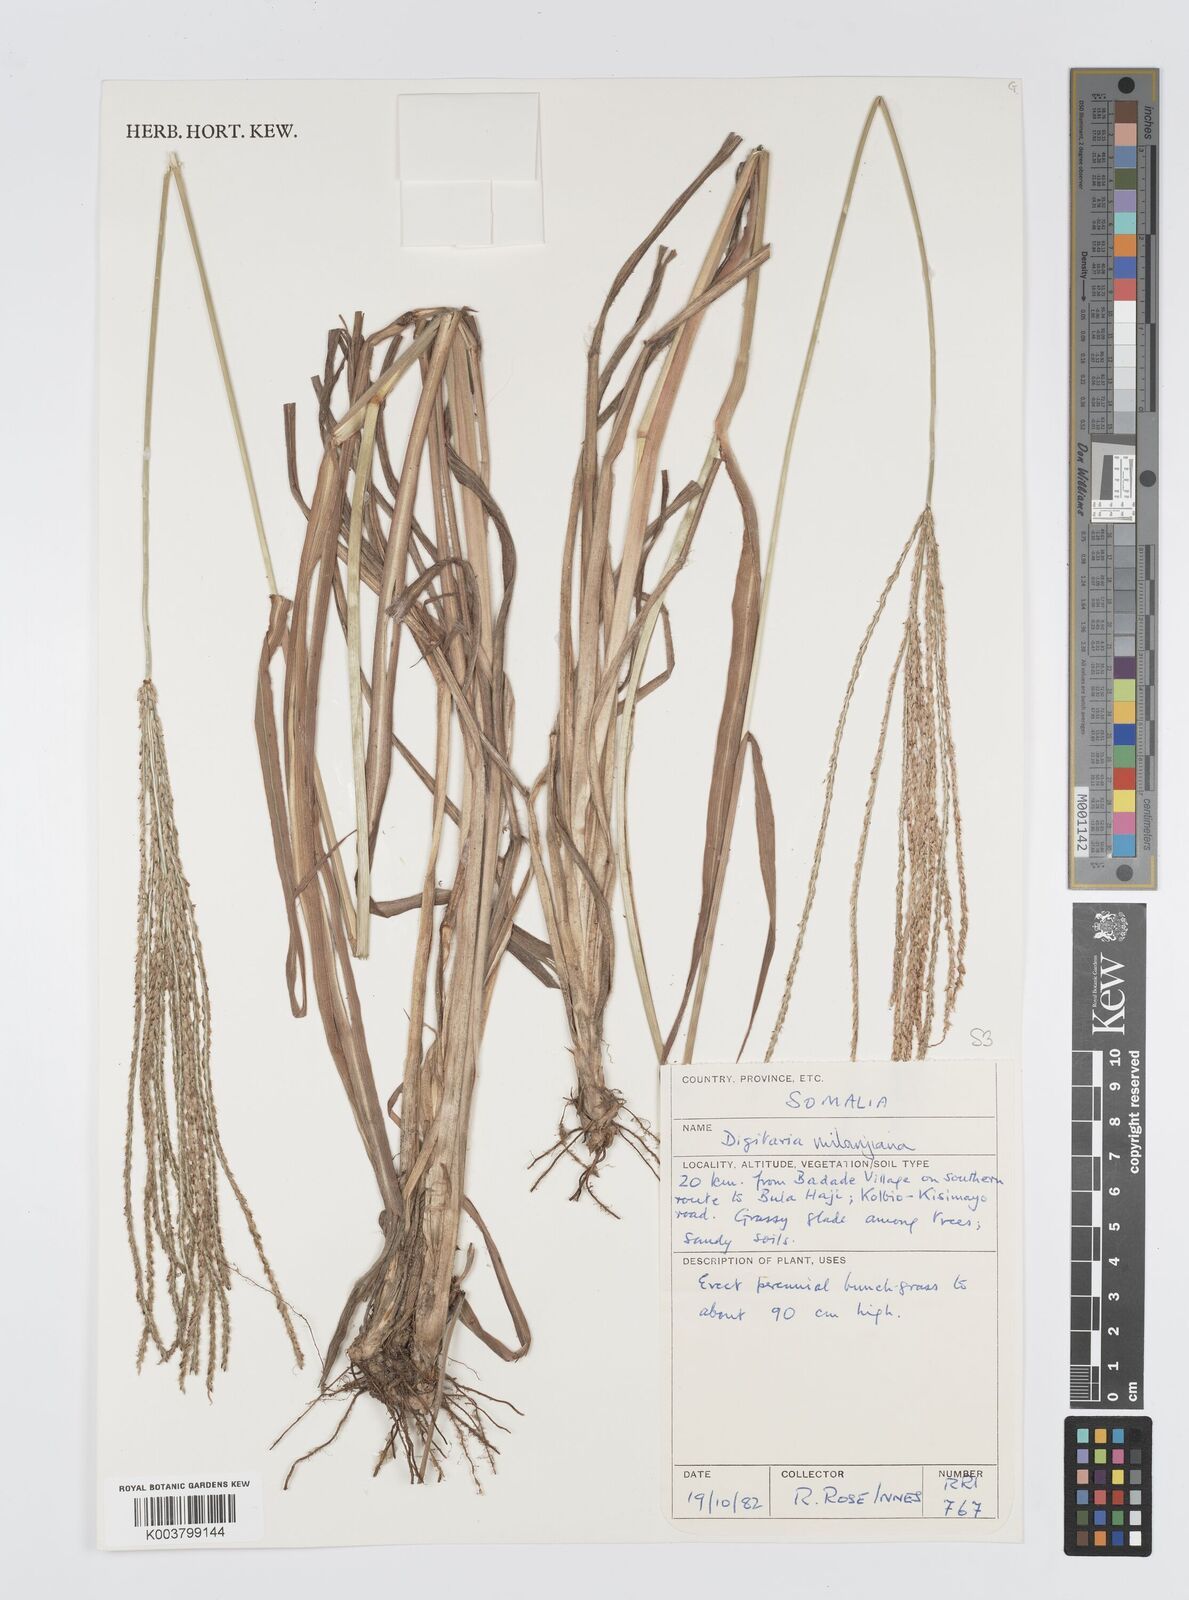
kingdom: Plantae
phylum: Tracheophyta
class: Liliopsida
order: Poales
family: Poaceae
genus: Digitaria
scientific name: Digitaria milanjiana
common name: Madagascar crabgrass
